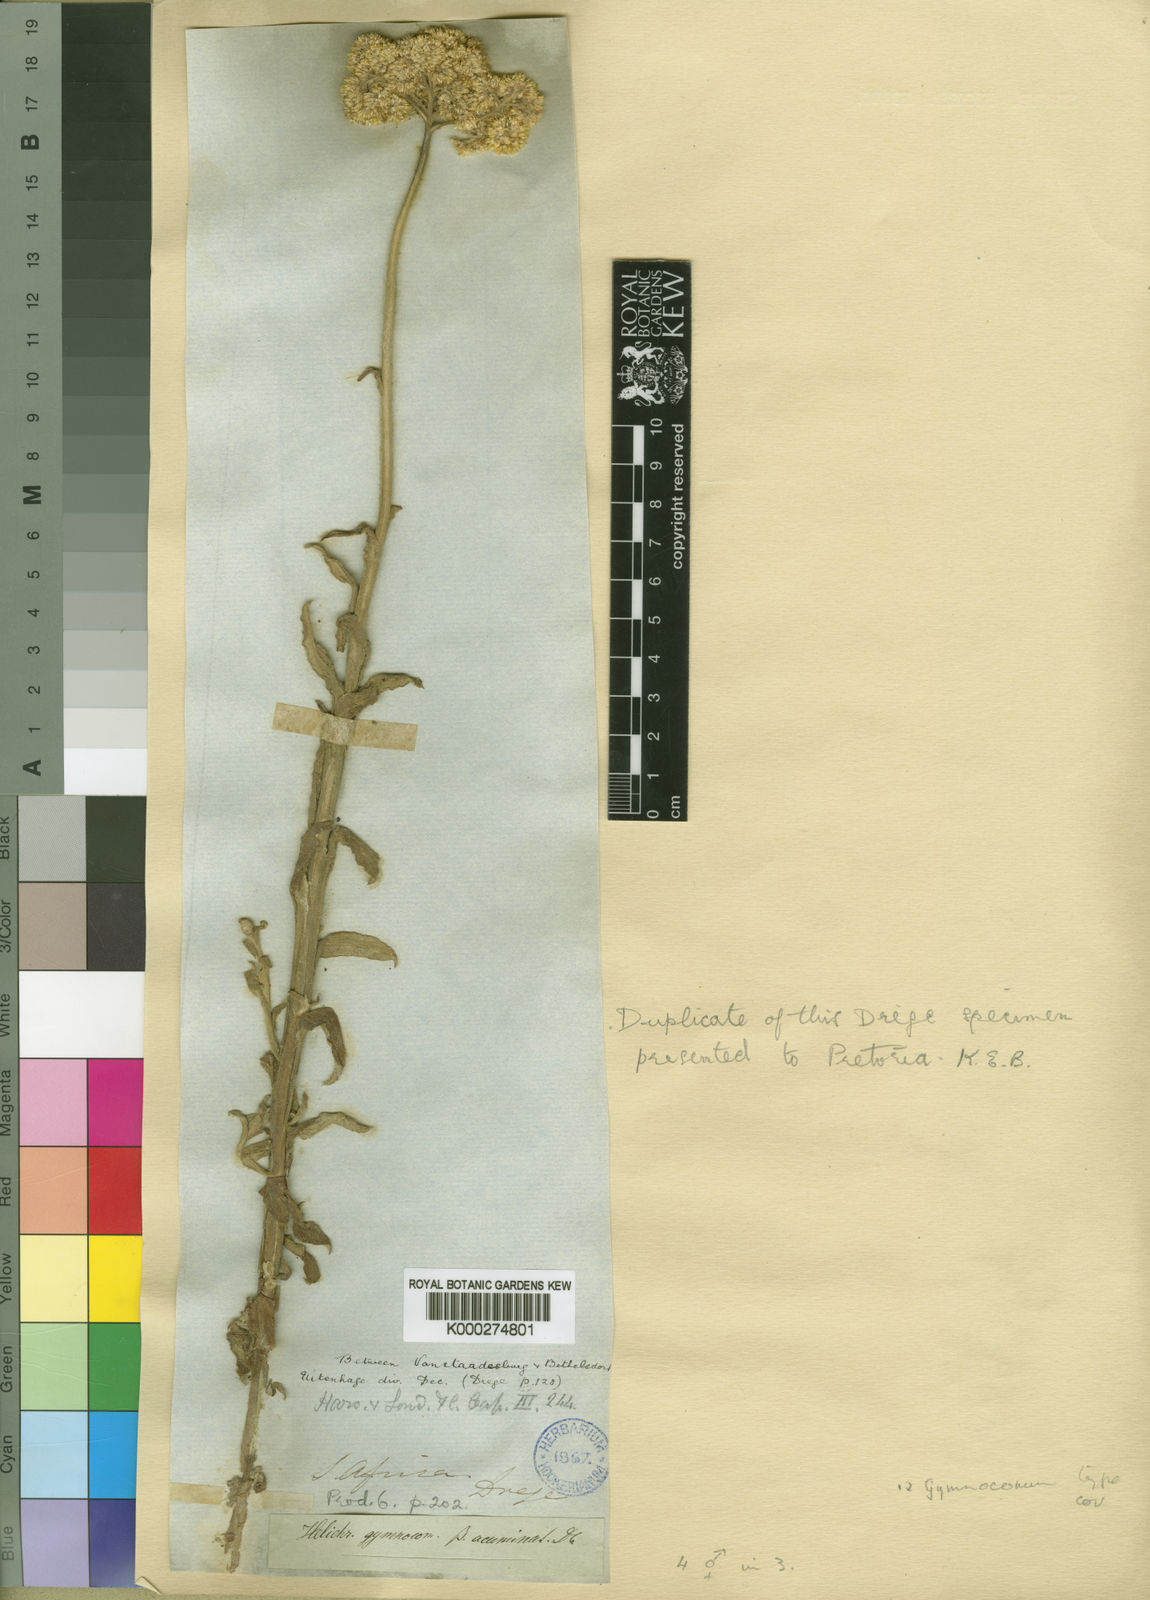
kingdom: Plantae
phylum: Tracheophyta
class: Magnoliopsida
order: Asterales
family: Asteraceae
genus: Helichrysum
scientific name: Helichrysum gymnocomum
